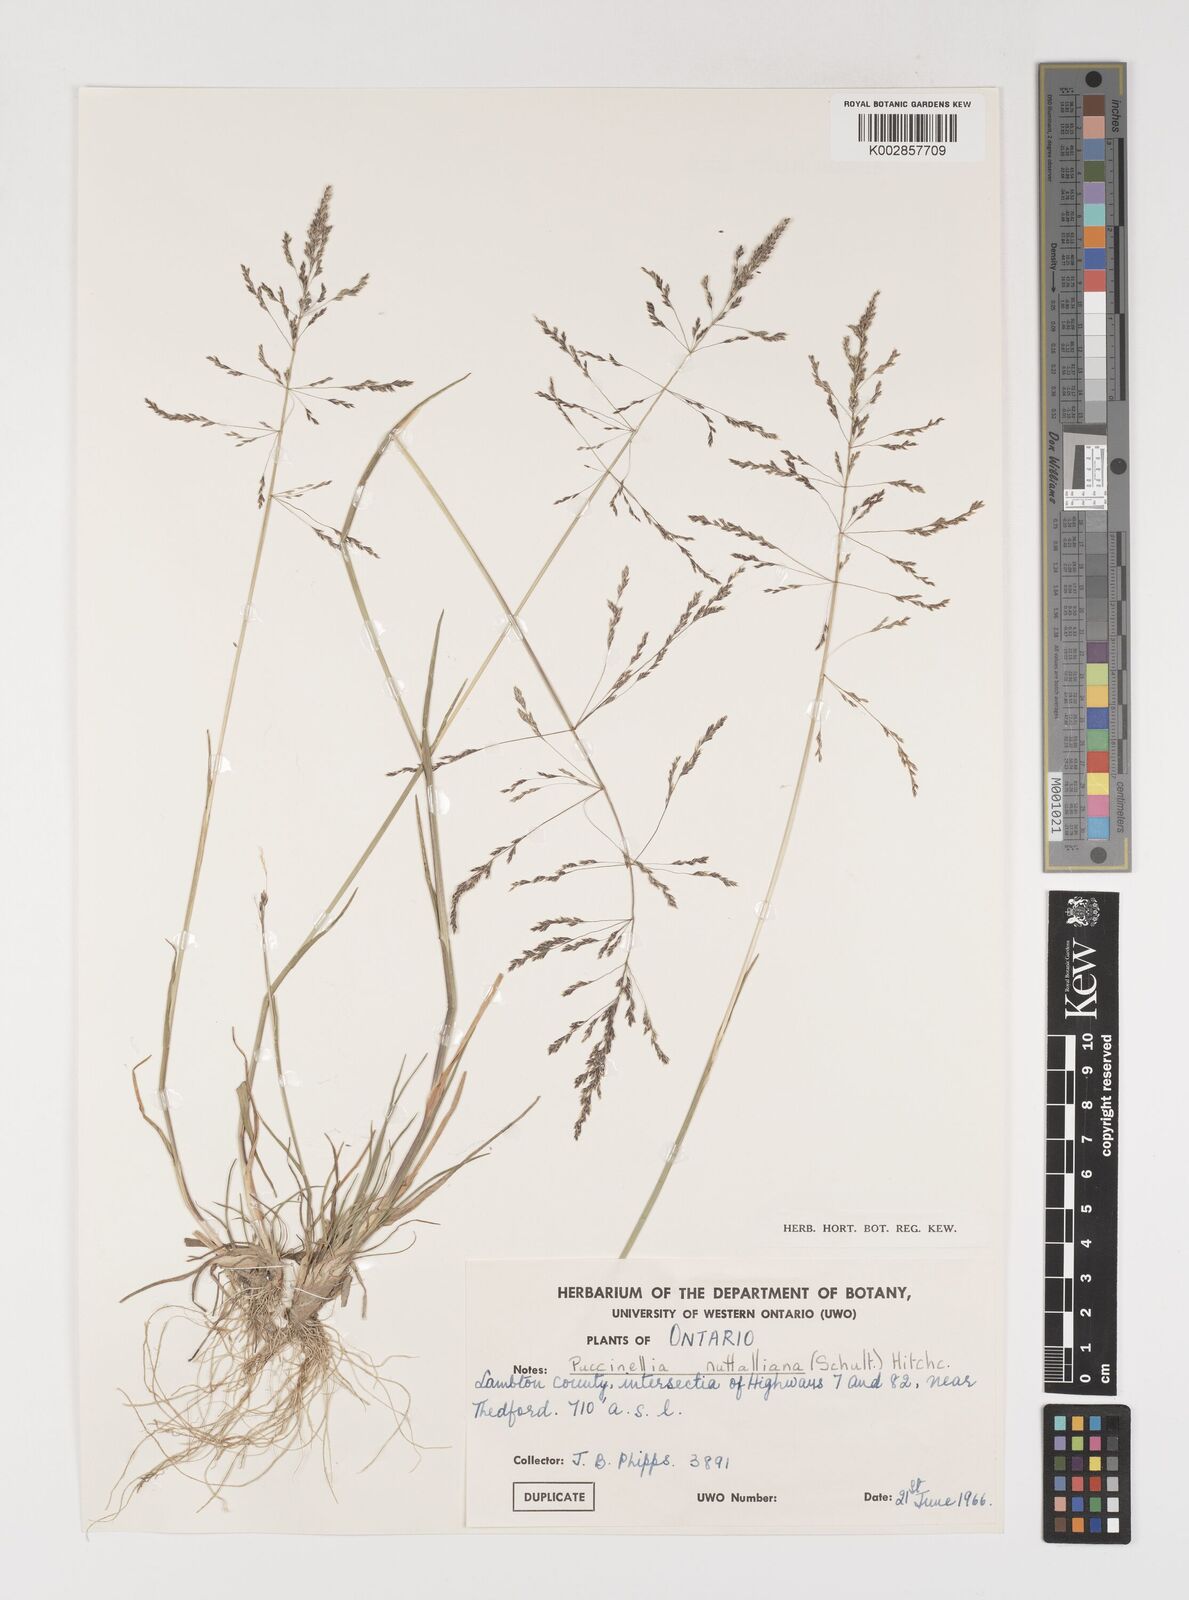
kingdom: Plantae
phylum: Tracheophyta
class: Liliopsida
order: Poales
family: Poaceae
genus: Puccinellia
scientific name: Puccinellia nuttalliana
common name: Nuttall's alkali grass
